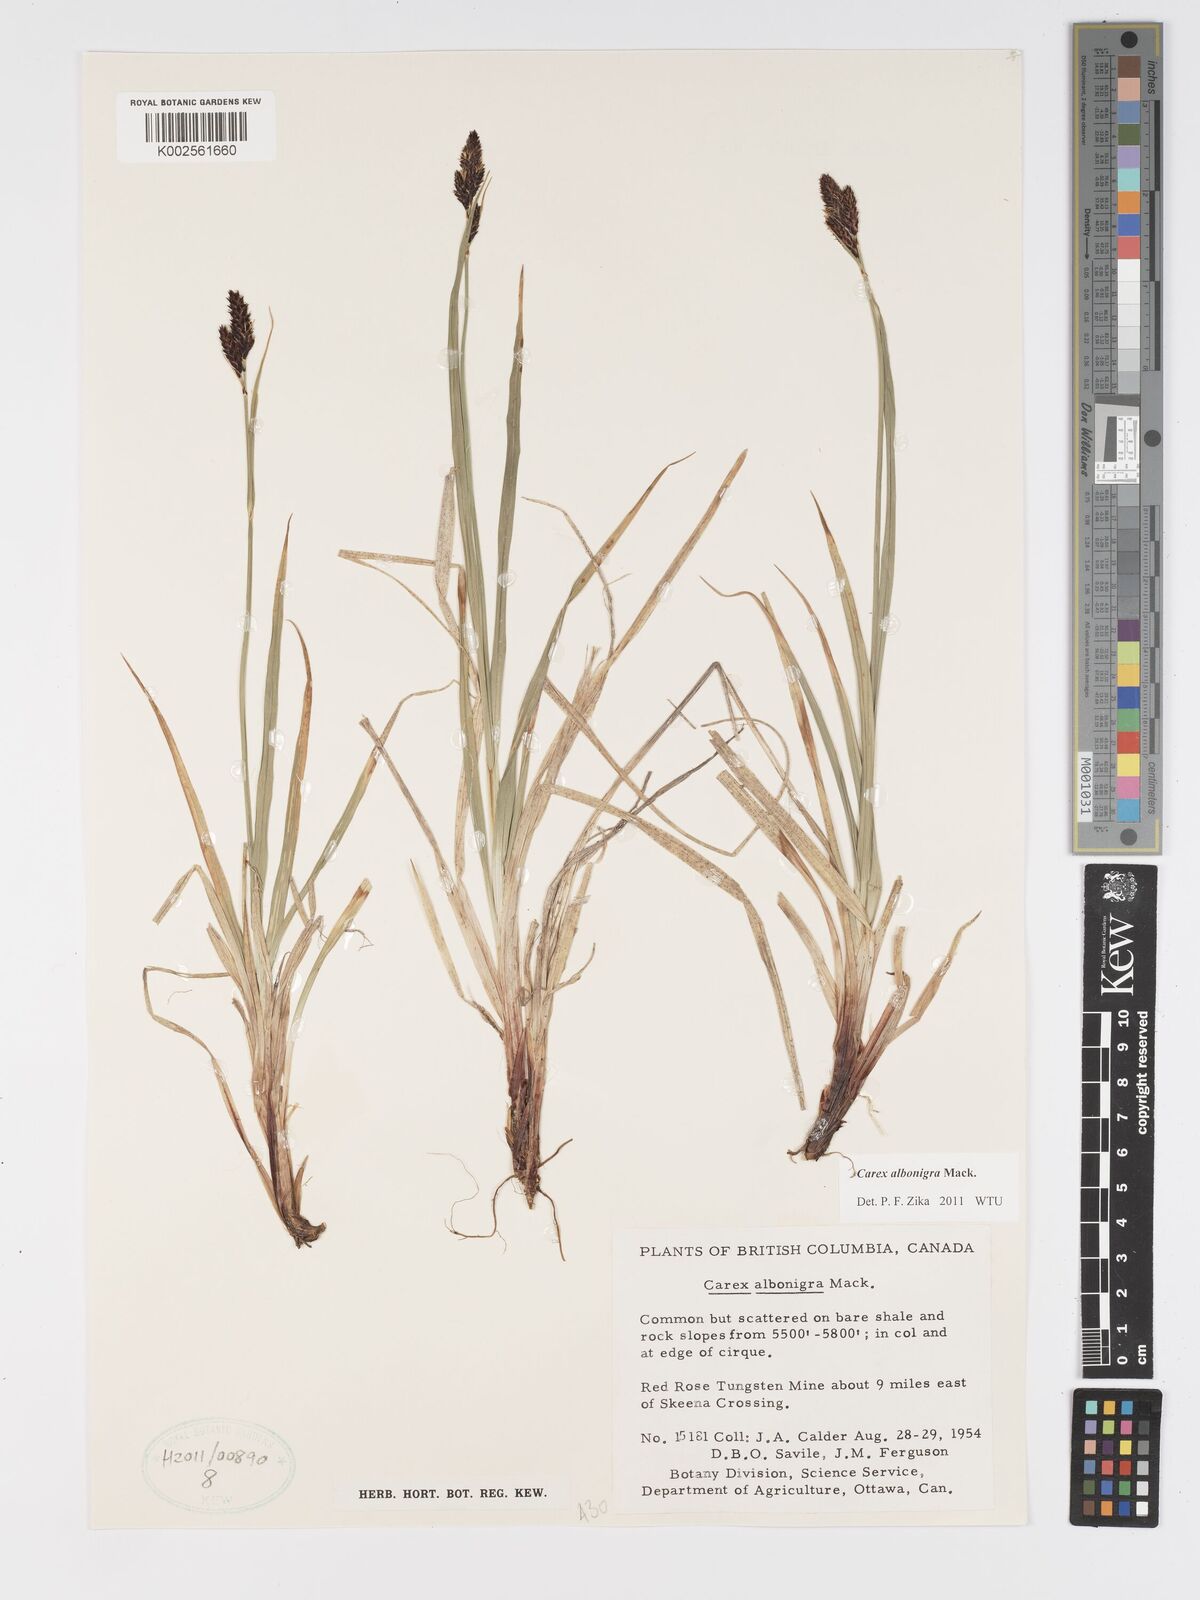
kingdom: Plantae
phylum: Tracheophyta
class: Liliopsida
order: Poales
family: Cyperaceae
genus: Carex
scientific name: Carex albonigra
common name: Black-and-white sedge
